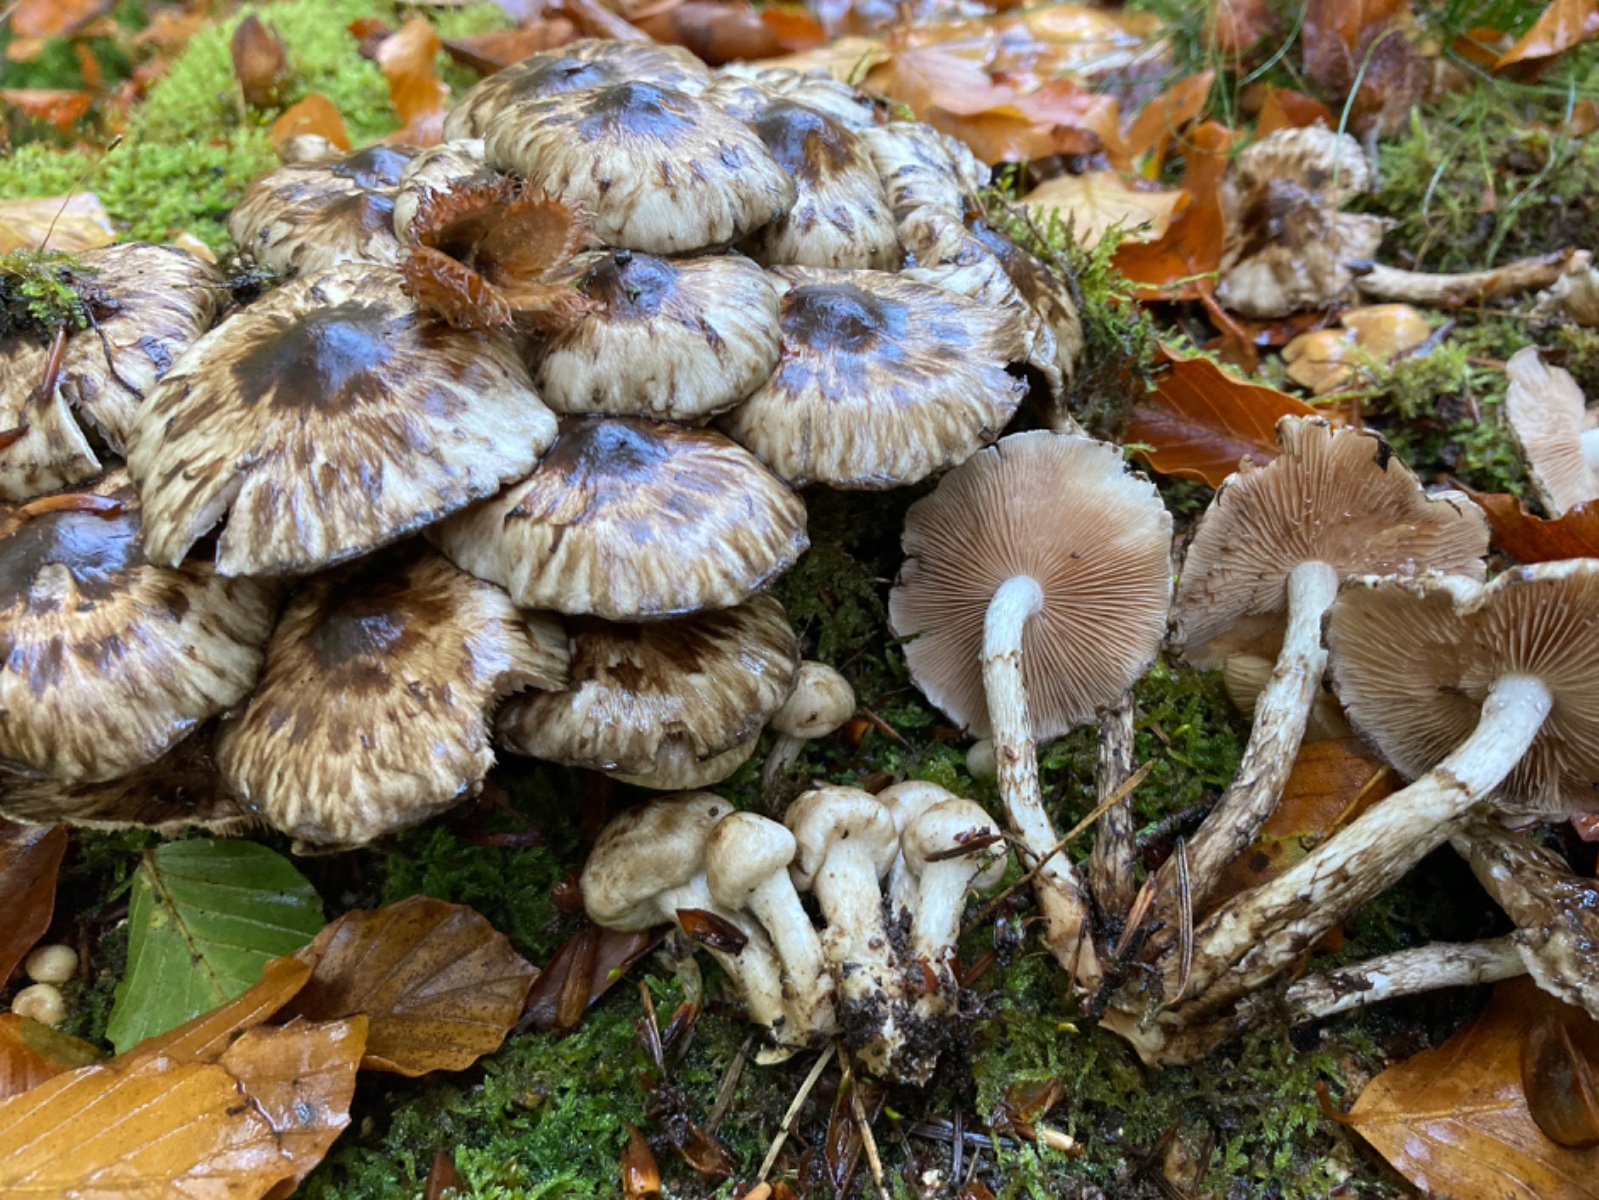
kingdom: Fungi
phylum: Basidiomycota
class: Agaricomycetes
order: Agaricales
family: Psathyrellaceae
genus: Psathyrella
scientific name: Psathyrella maculata
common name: sortskællet mørkhat
